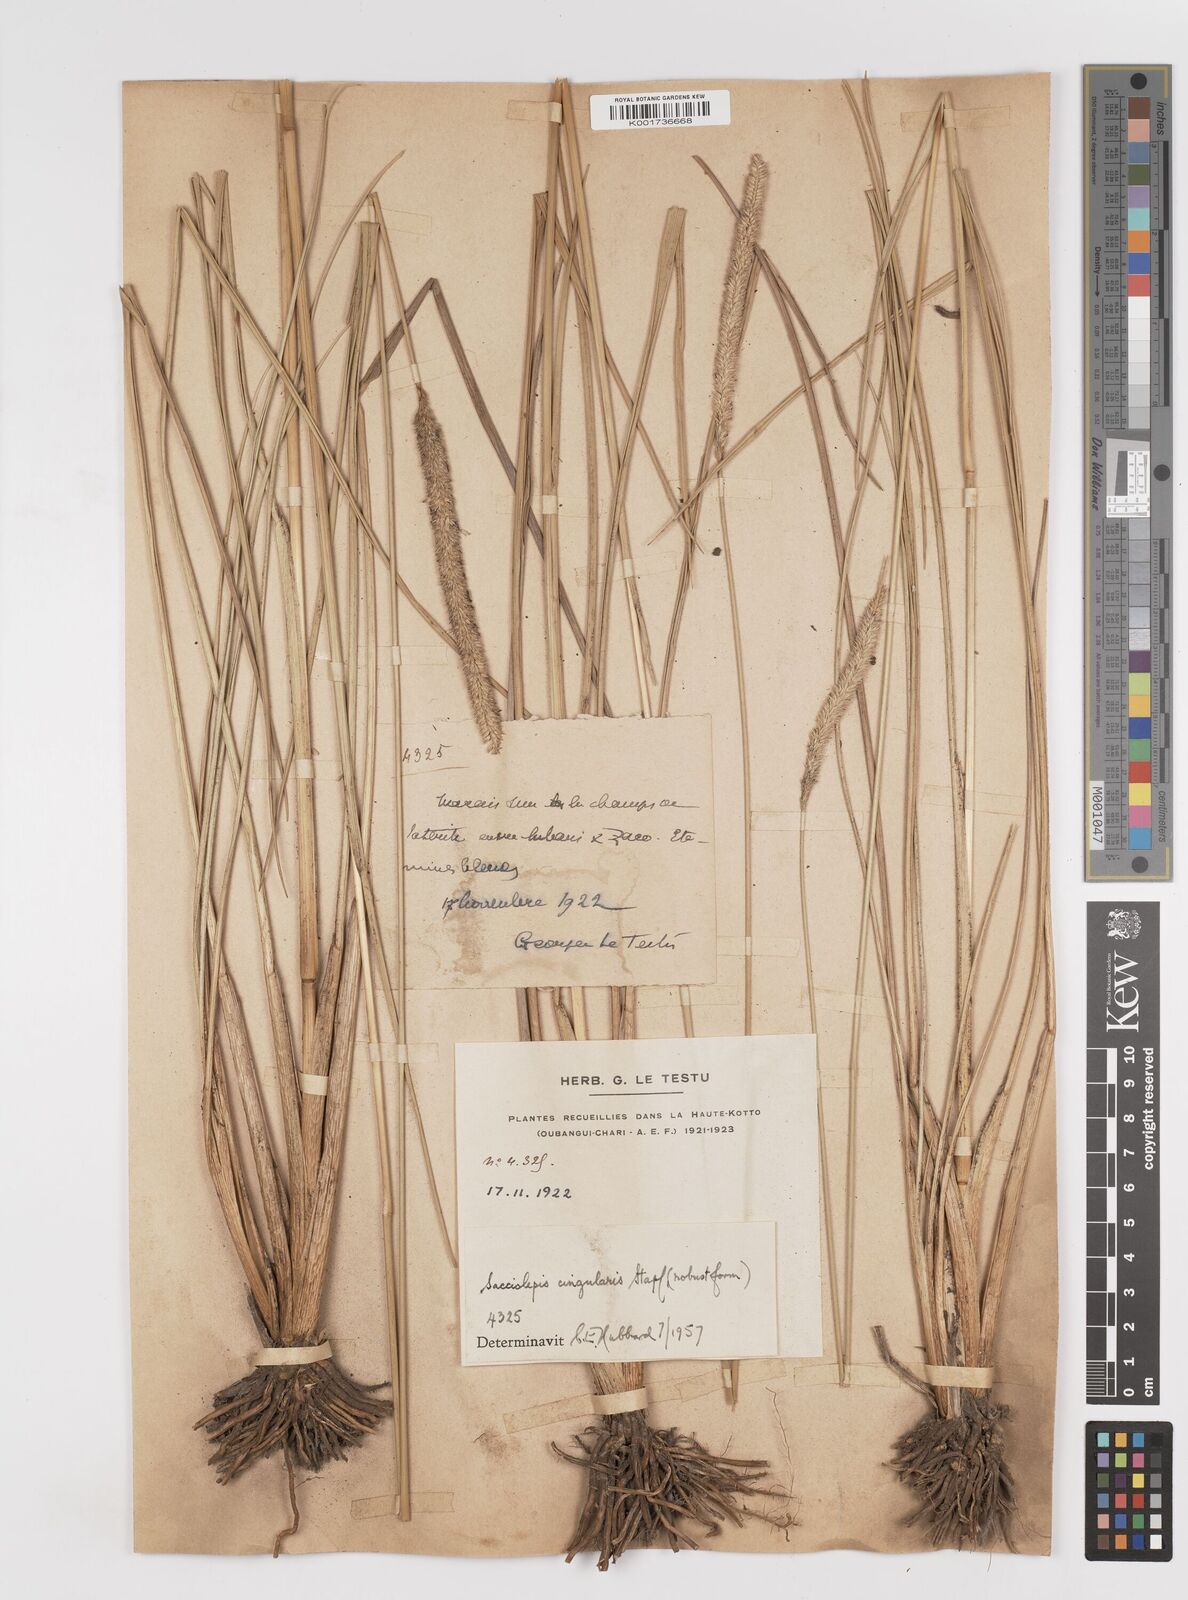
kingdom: Plantae
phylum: Tracheophyta
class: Liliopsida
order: Poales
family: Poaceae
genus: Sacciolepis
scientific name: Sacciolepis cingularis
